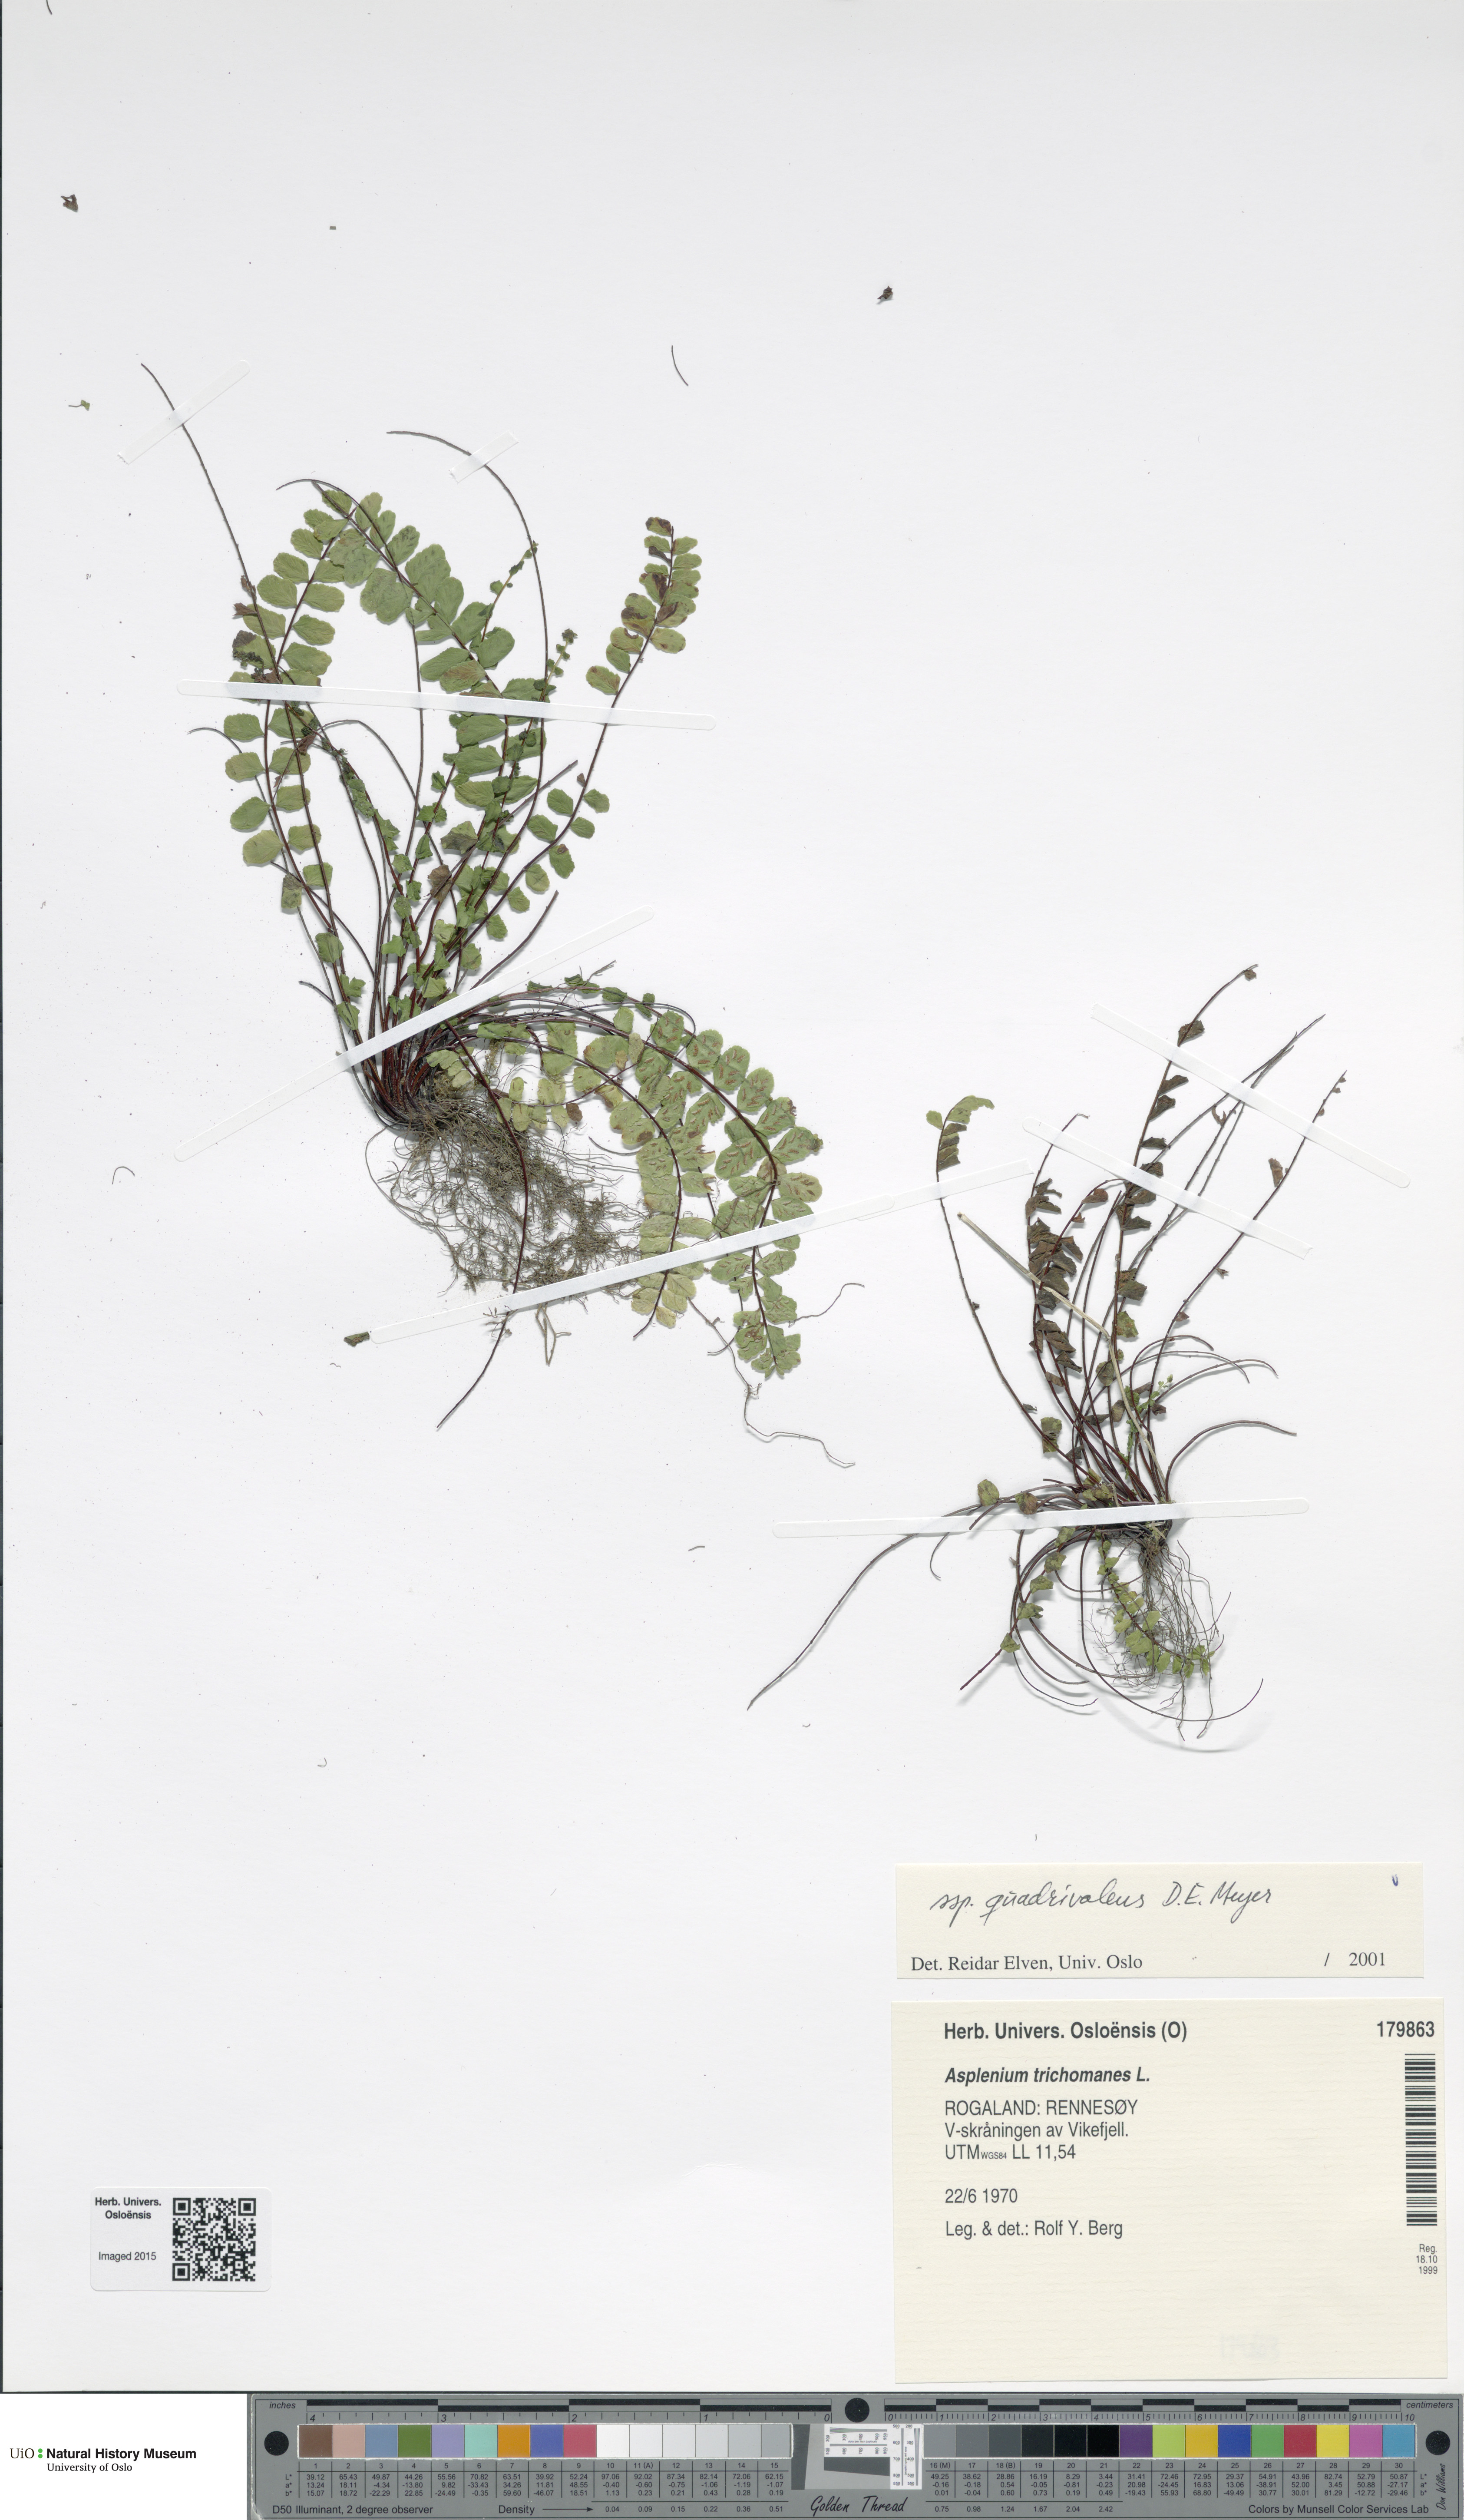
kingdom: Plantae
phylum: Tracheophyta
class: Polypodiopsida
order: Polypodiales
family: Aspleniaceae
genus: Asplenium
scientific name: Asplenium quadrivalens
